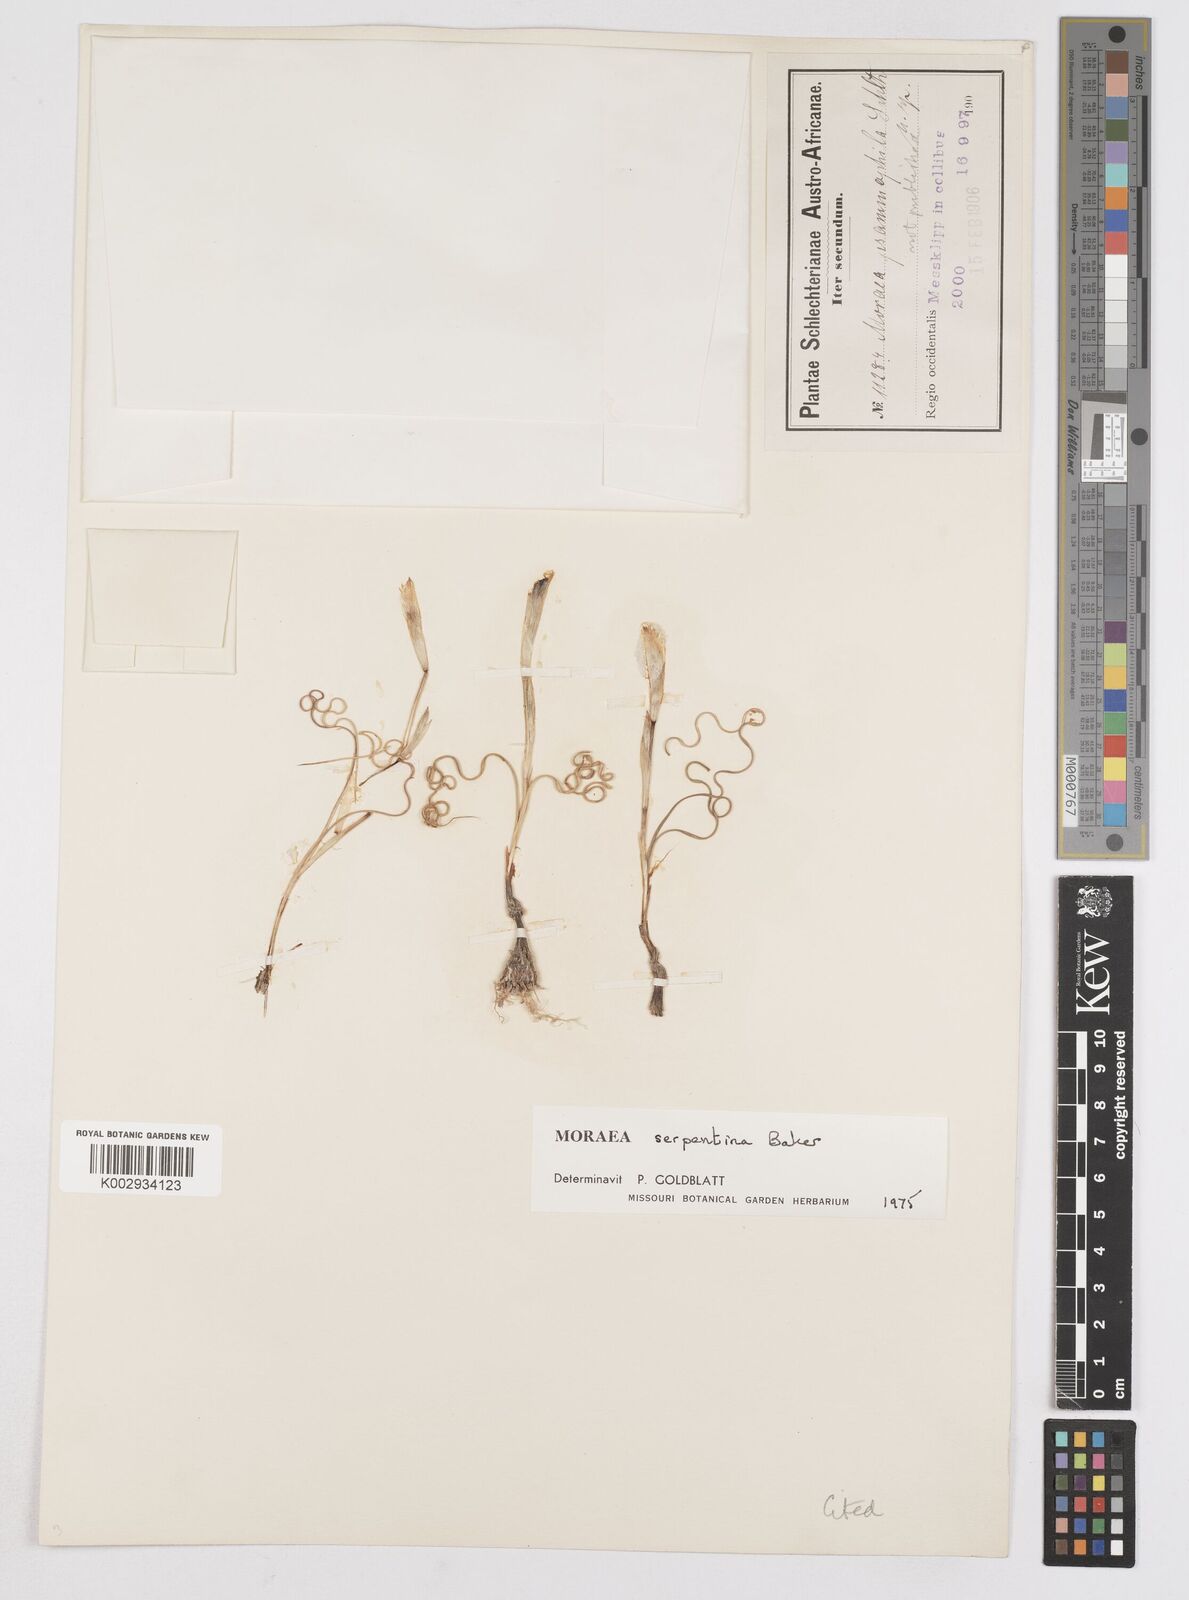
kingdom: Plantae
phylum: Tracheophyta
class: Liliopsida
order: Asparagales
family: Iridaceae
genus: Moraea
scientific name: Moraea serpentina
